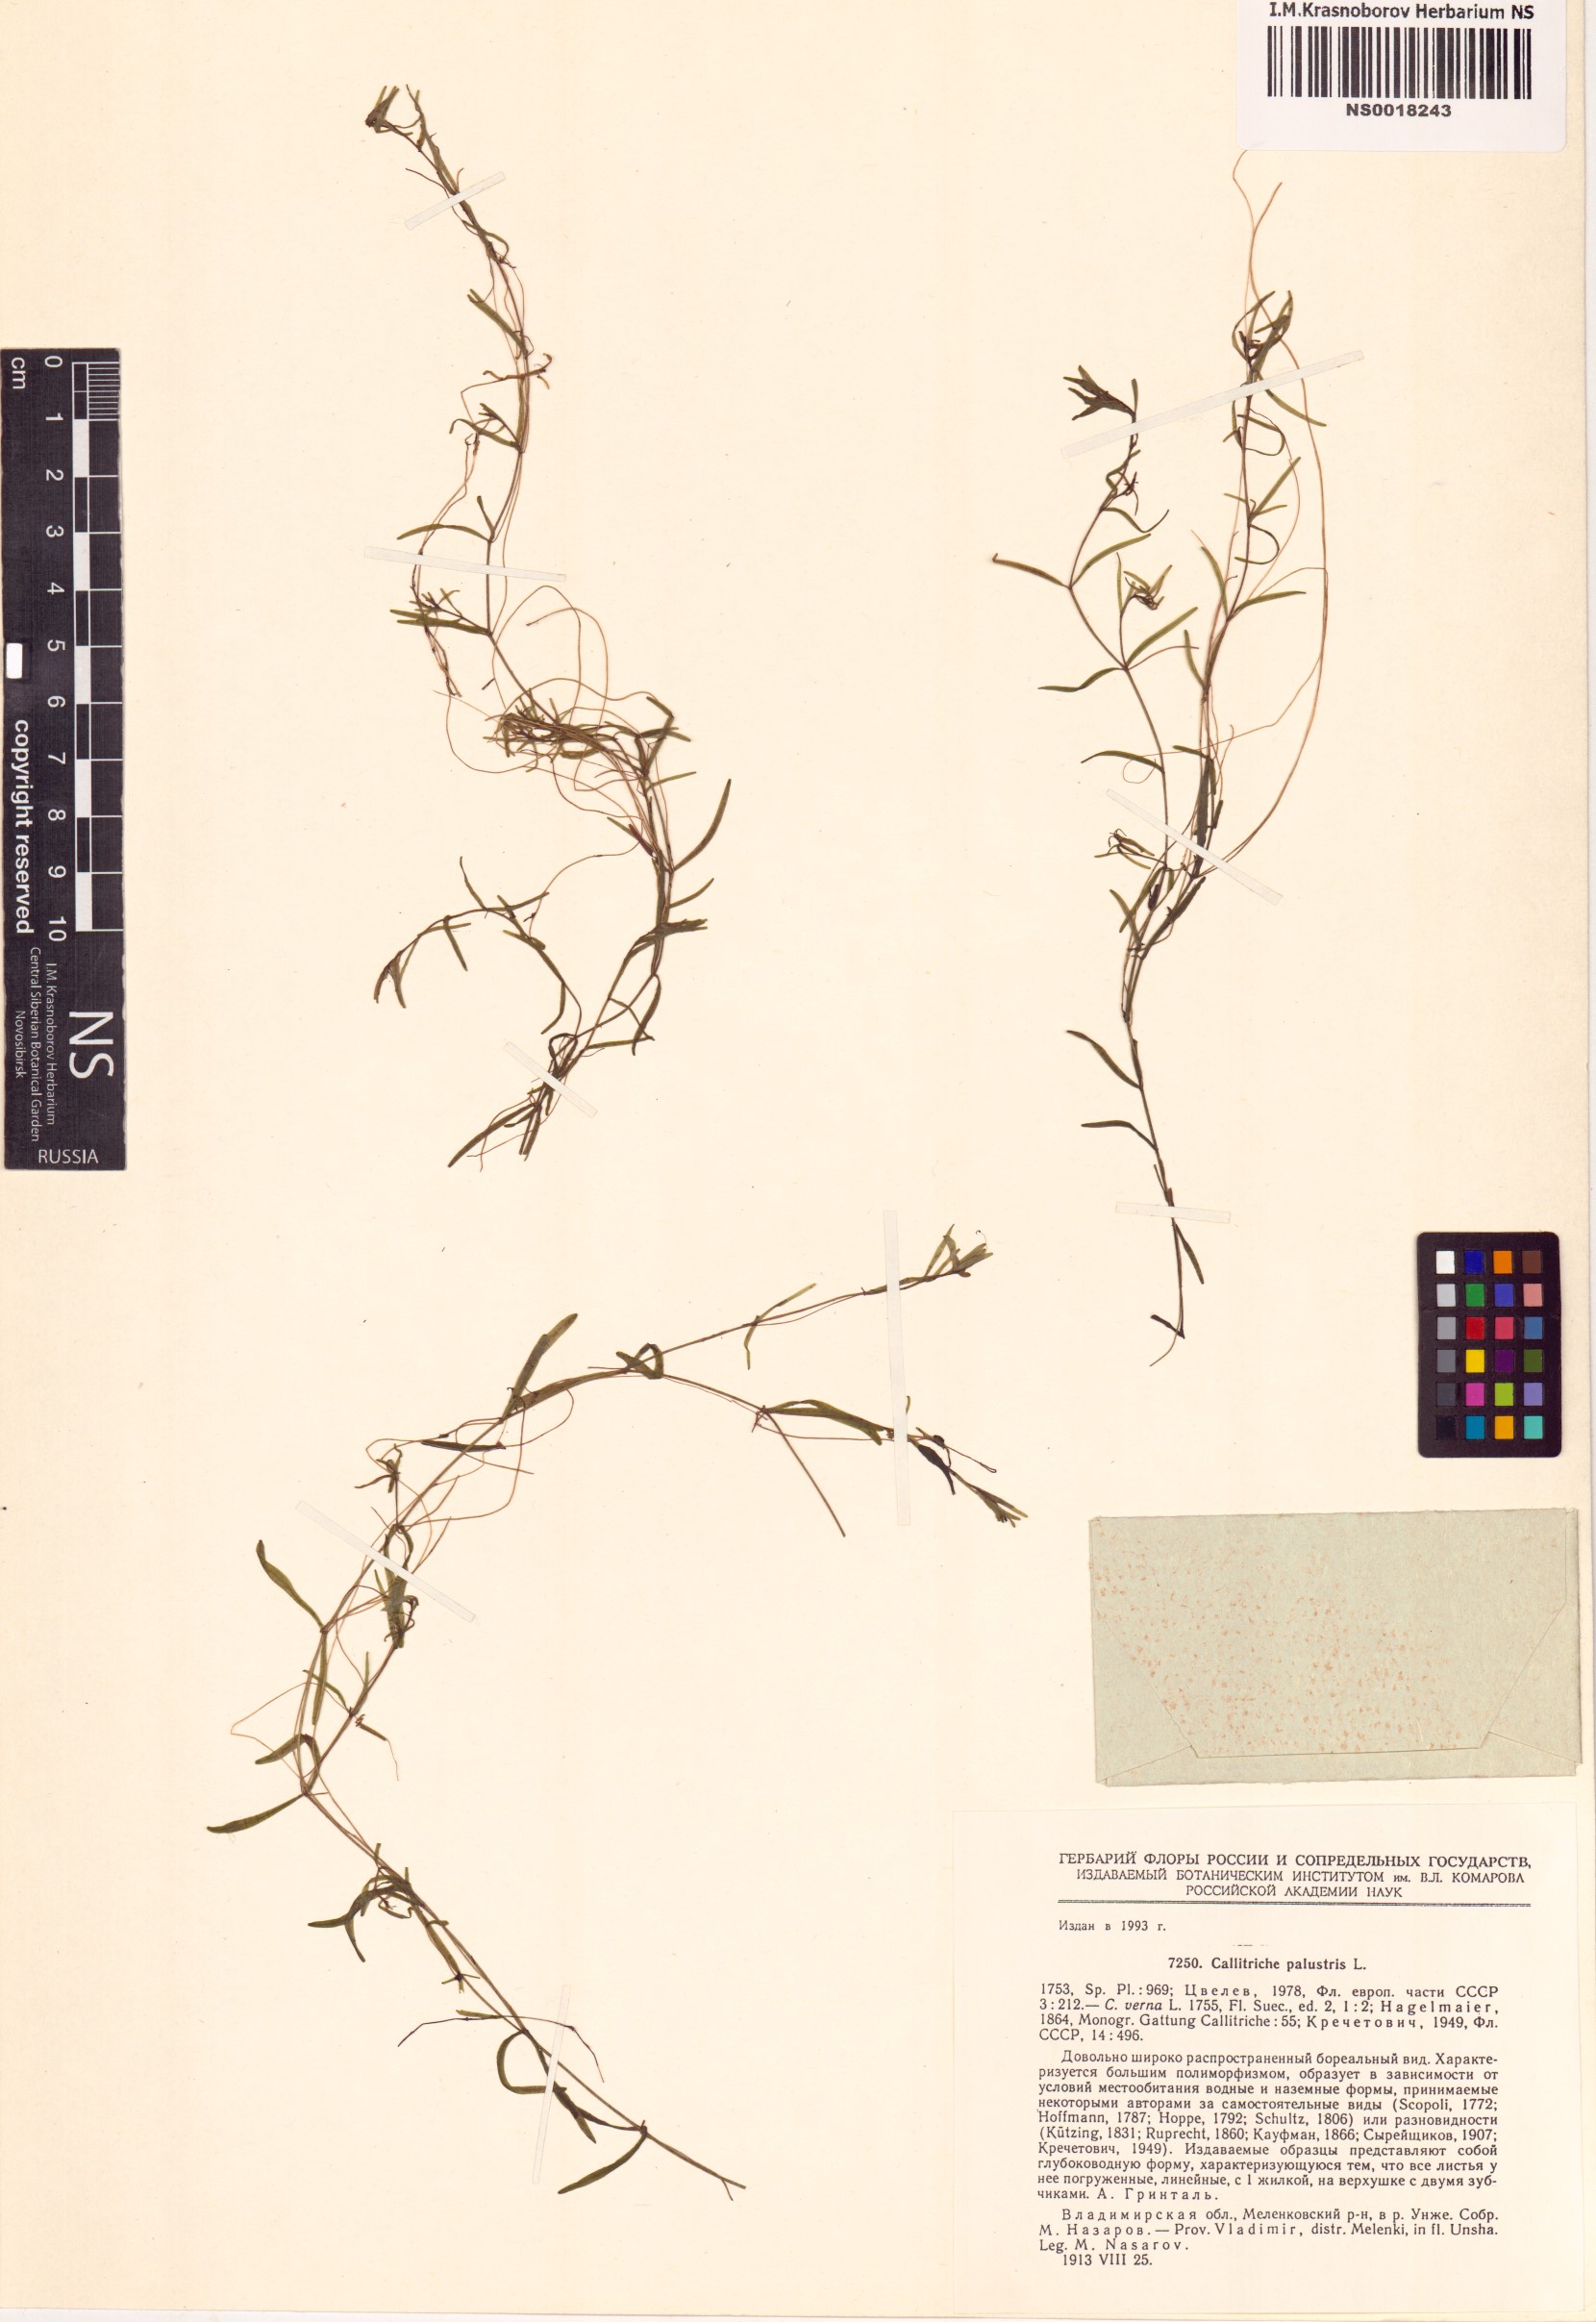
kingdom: Plantae
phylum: Tracheophyta
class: Magnoliopsida
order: Lamiales
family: Plantaginaceae
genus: Callitriche
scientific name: Callitriche palustris
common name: Spring water-starwort
